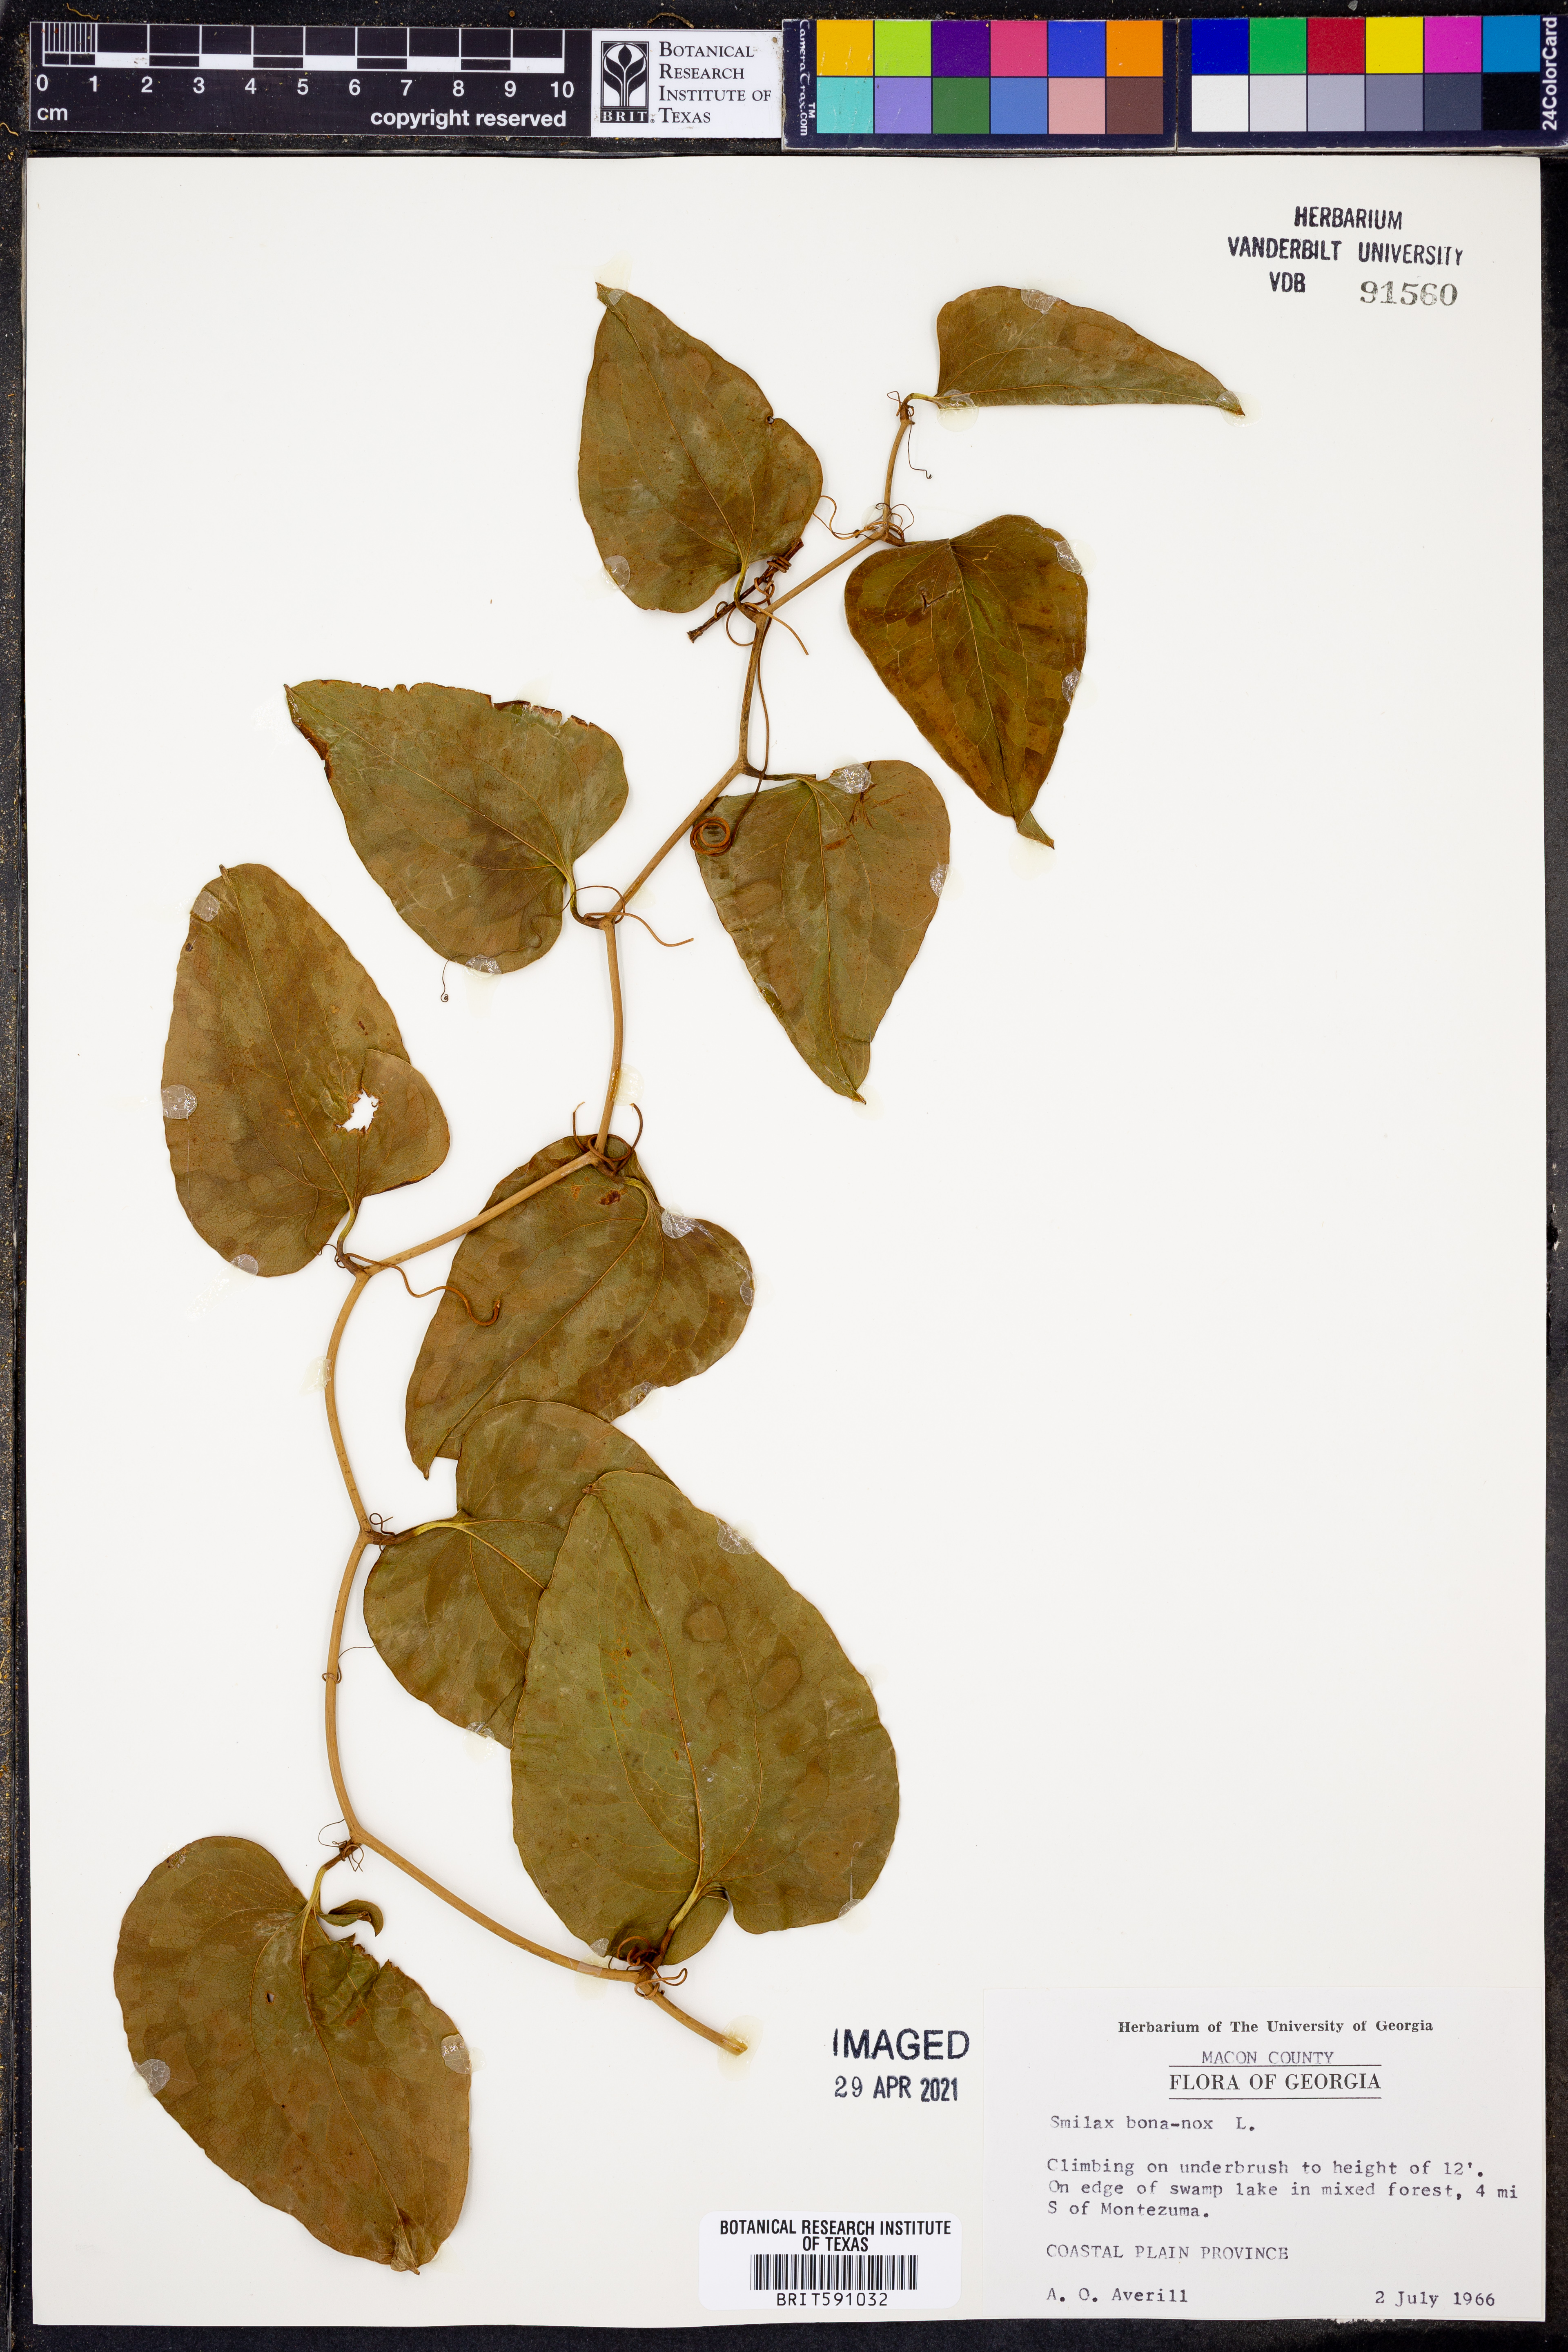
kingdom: Plantae
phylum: Tracheophyta
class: Liliopsida
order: Liliales
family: Smilacaceae
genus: Smilax
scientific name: Smilax bona-nox
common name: Catbrier
